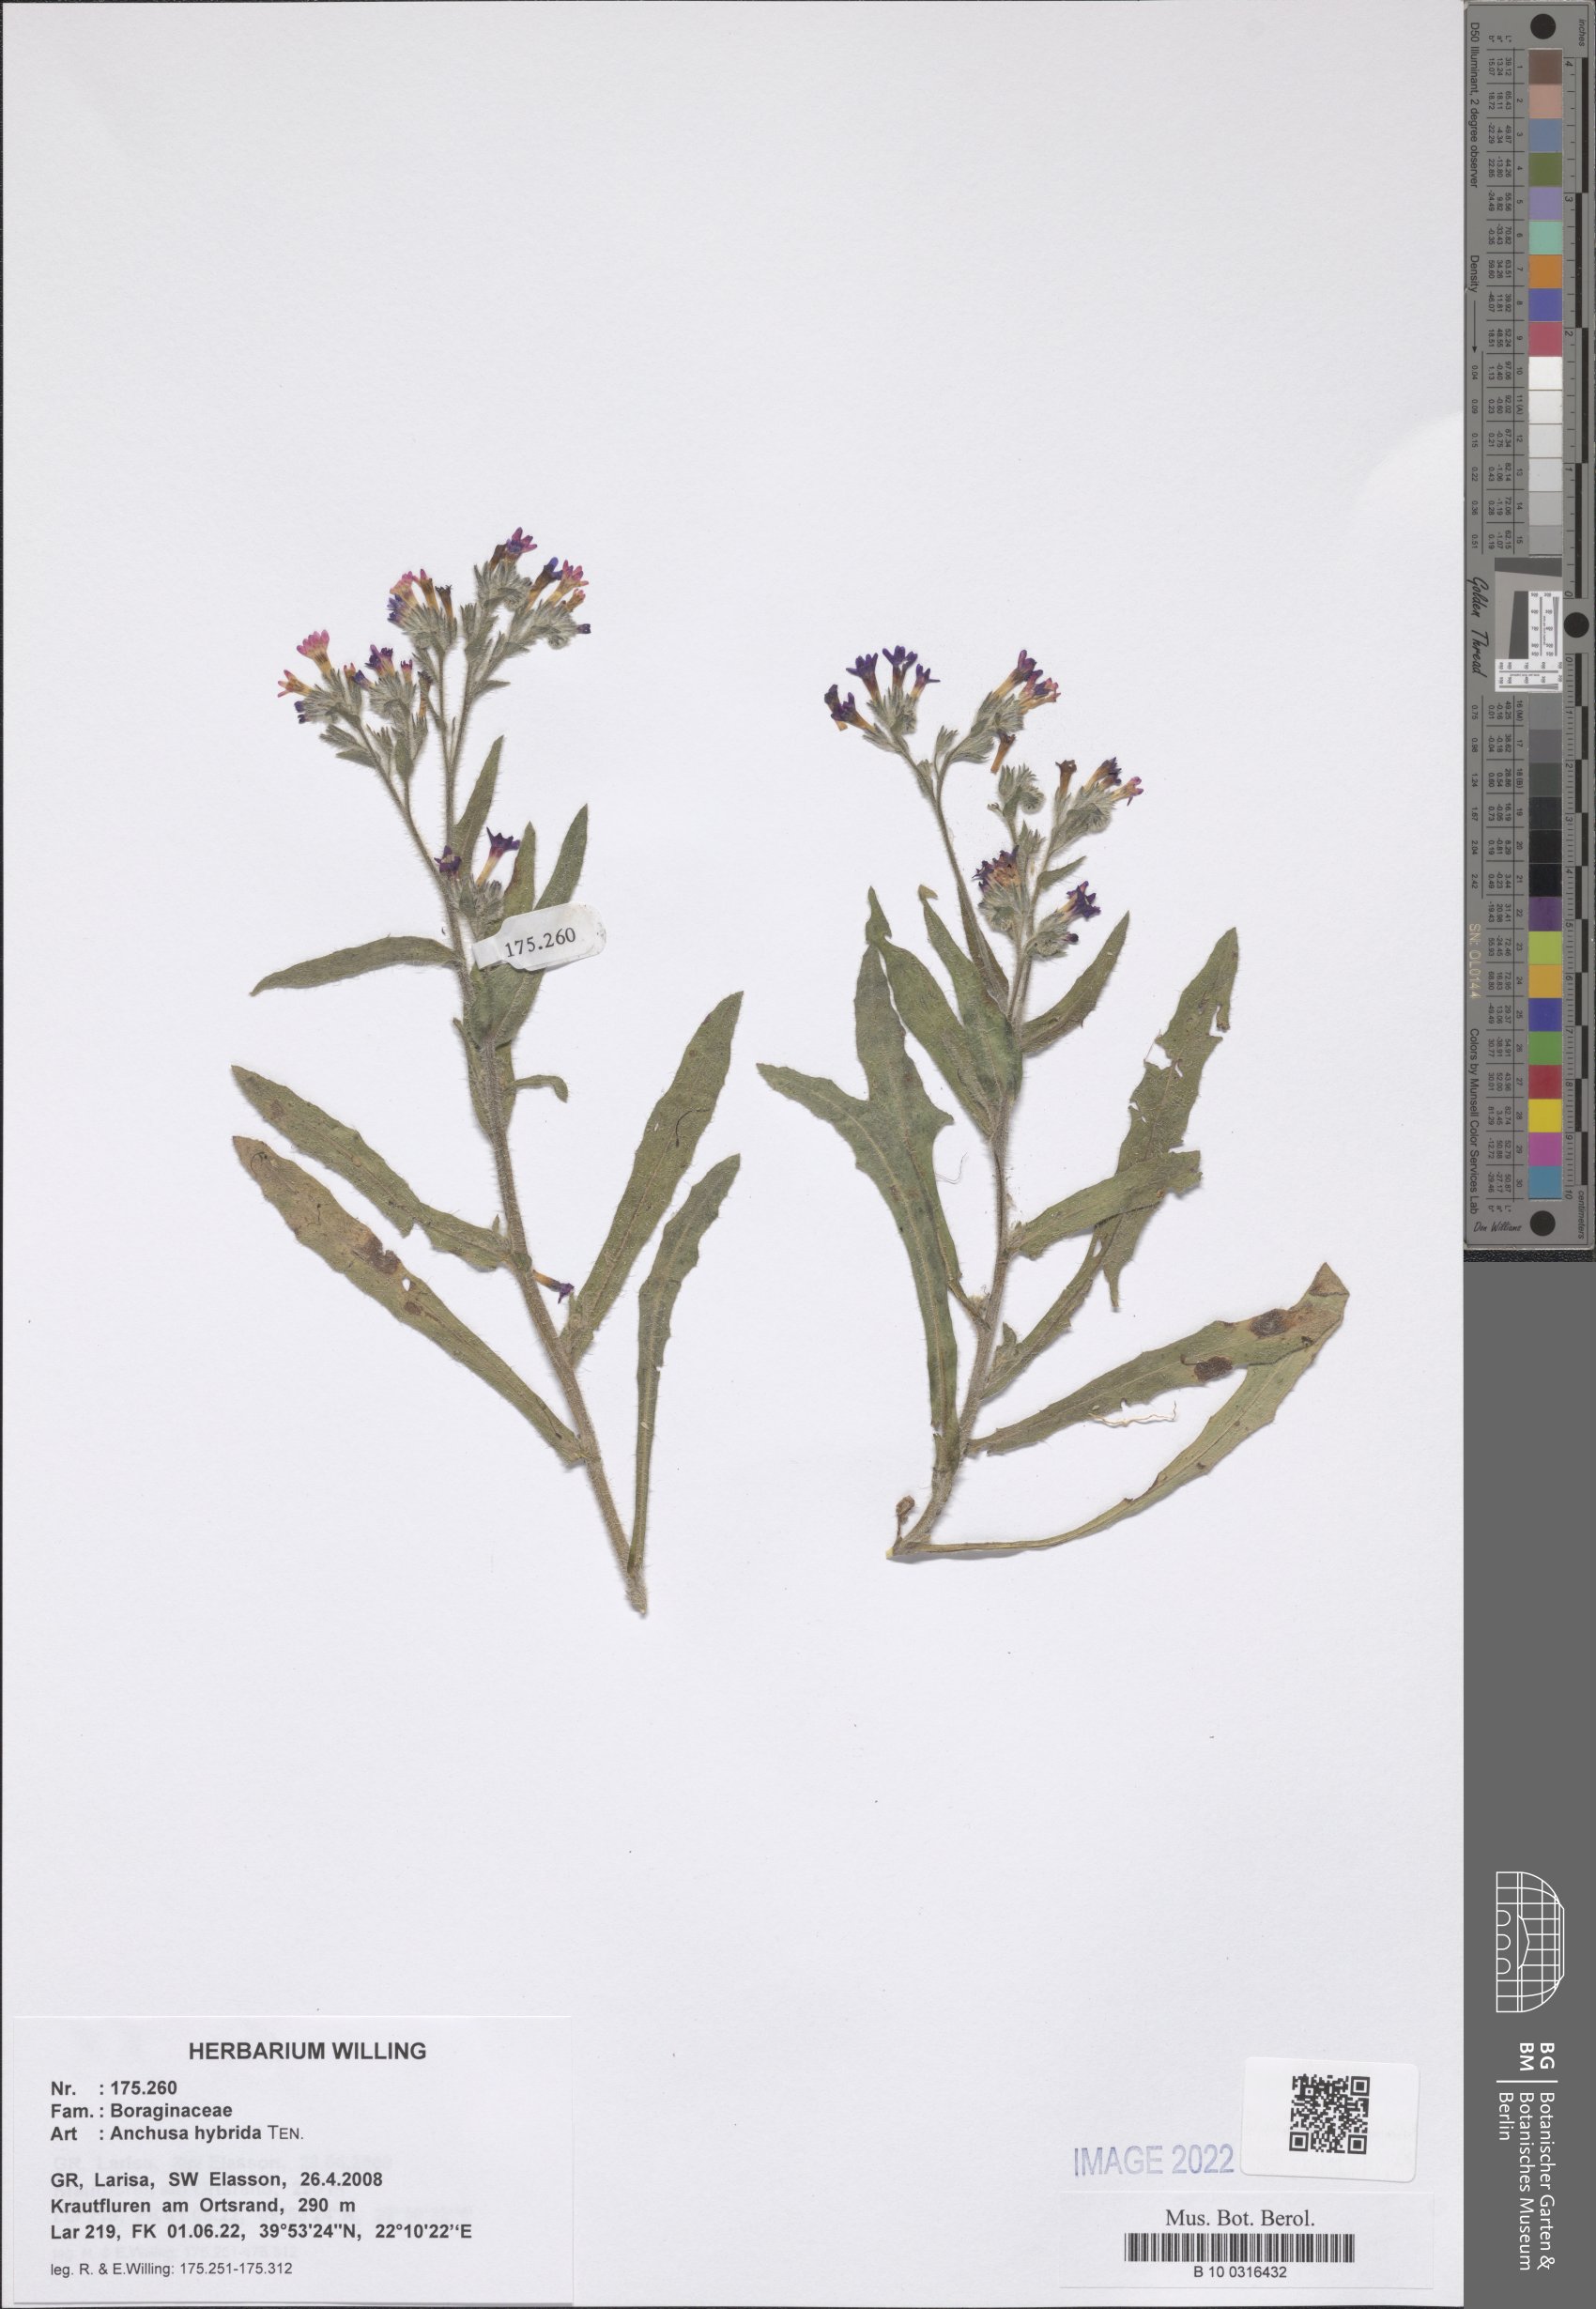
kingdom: Plantae
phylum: Tracheophyta
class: Magnoliopsida
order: Boraginales
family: Boraginaceae
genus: Anchusa
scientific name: Anchusa hybrida
